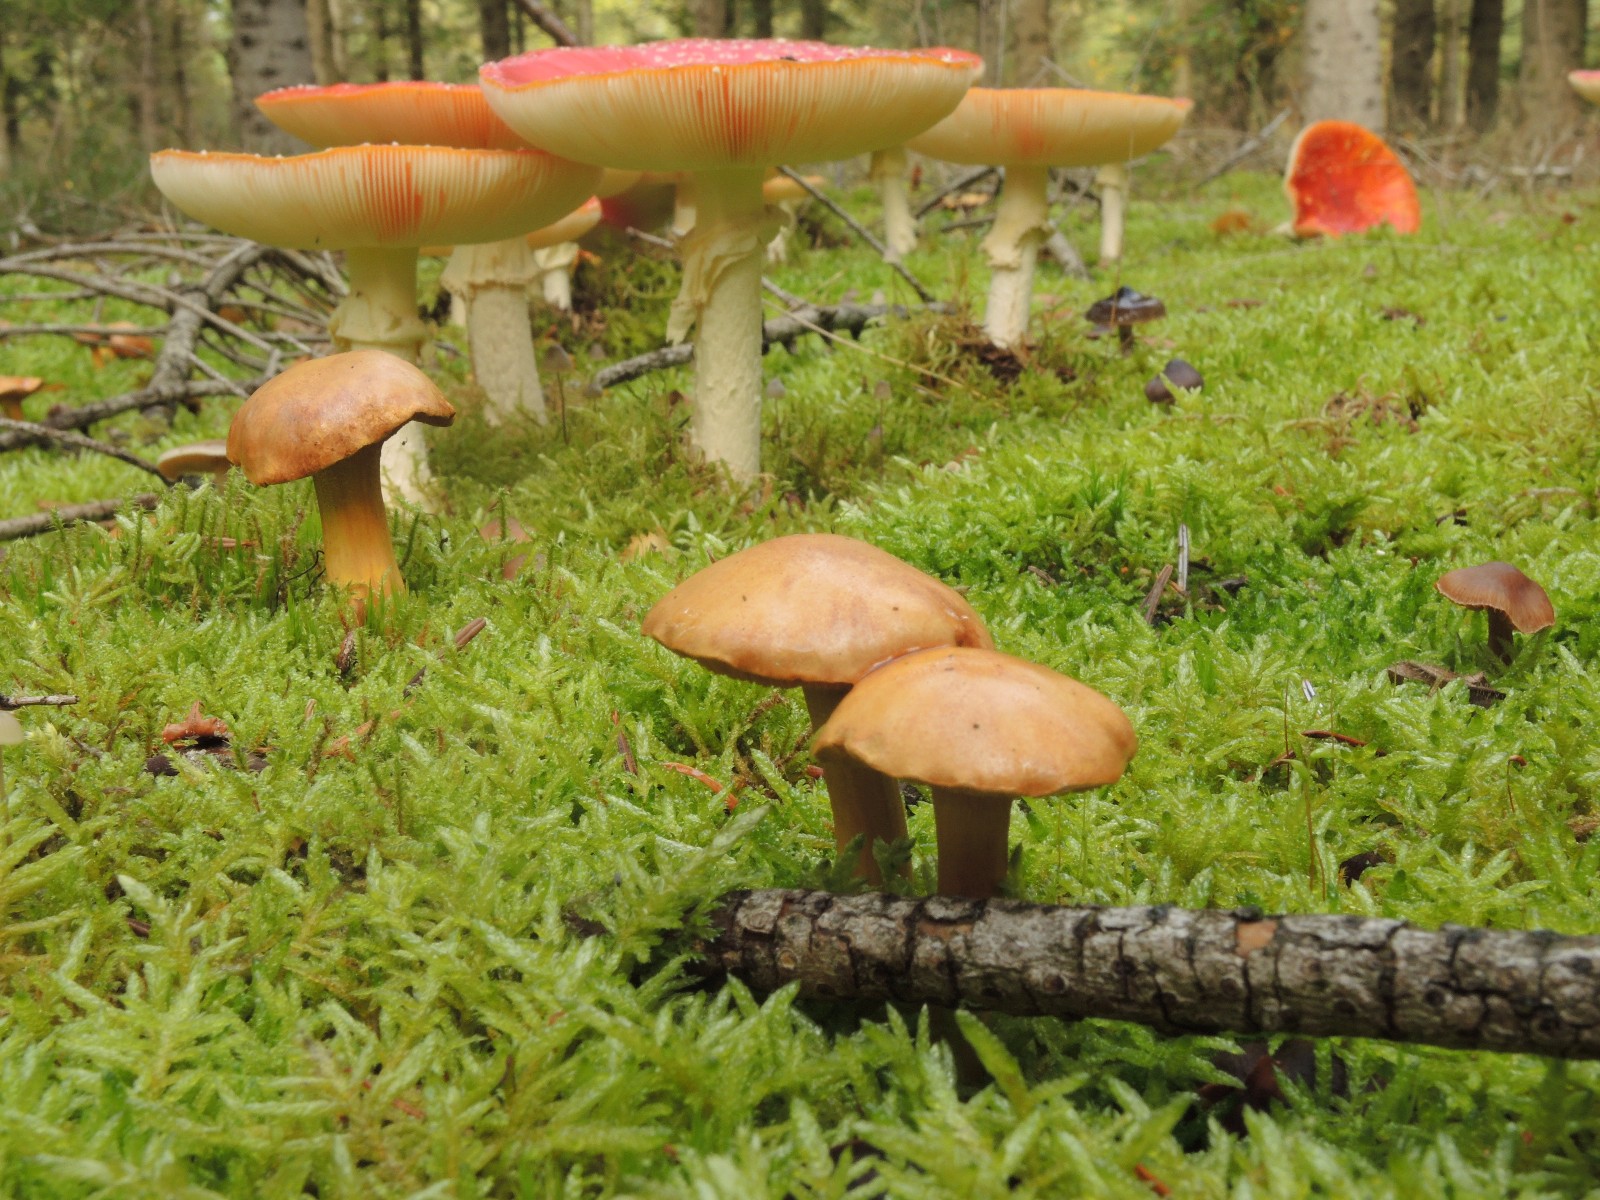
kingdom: Fungi
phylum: Basidiomycota
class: Agaricomycetes
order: Boletales
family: Boletaceae
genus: Chalciporus
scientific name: Chalciporus piperatus
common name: peberrørhat
